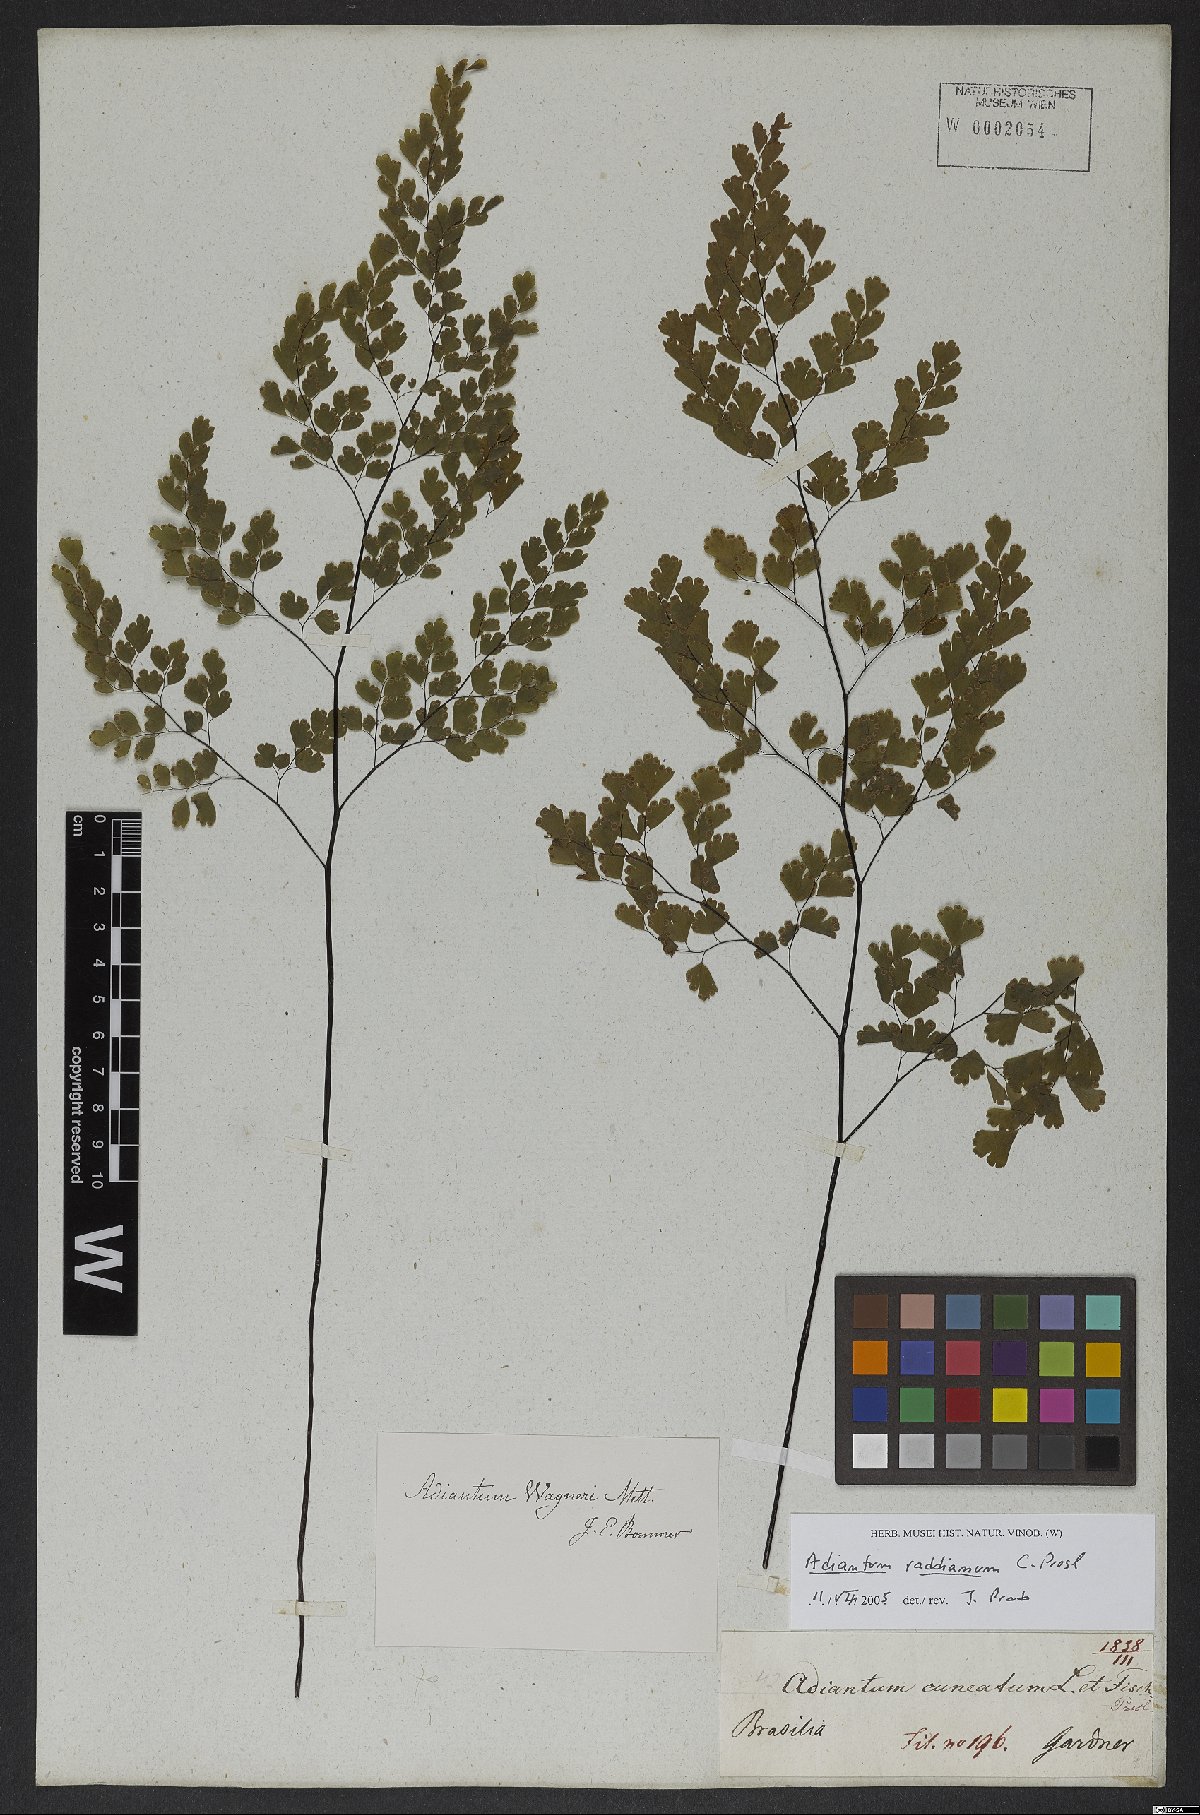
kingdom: Plantae
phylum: Tracheophyta
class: Polypodiopsida
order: Polypodiales
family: Pteridaceae
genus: Adiantum
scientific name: Adiantum raddianum
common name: Delta maidenhair fern
